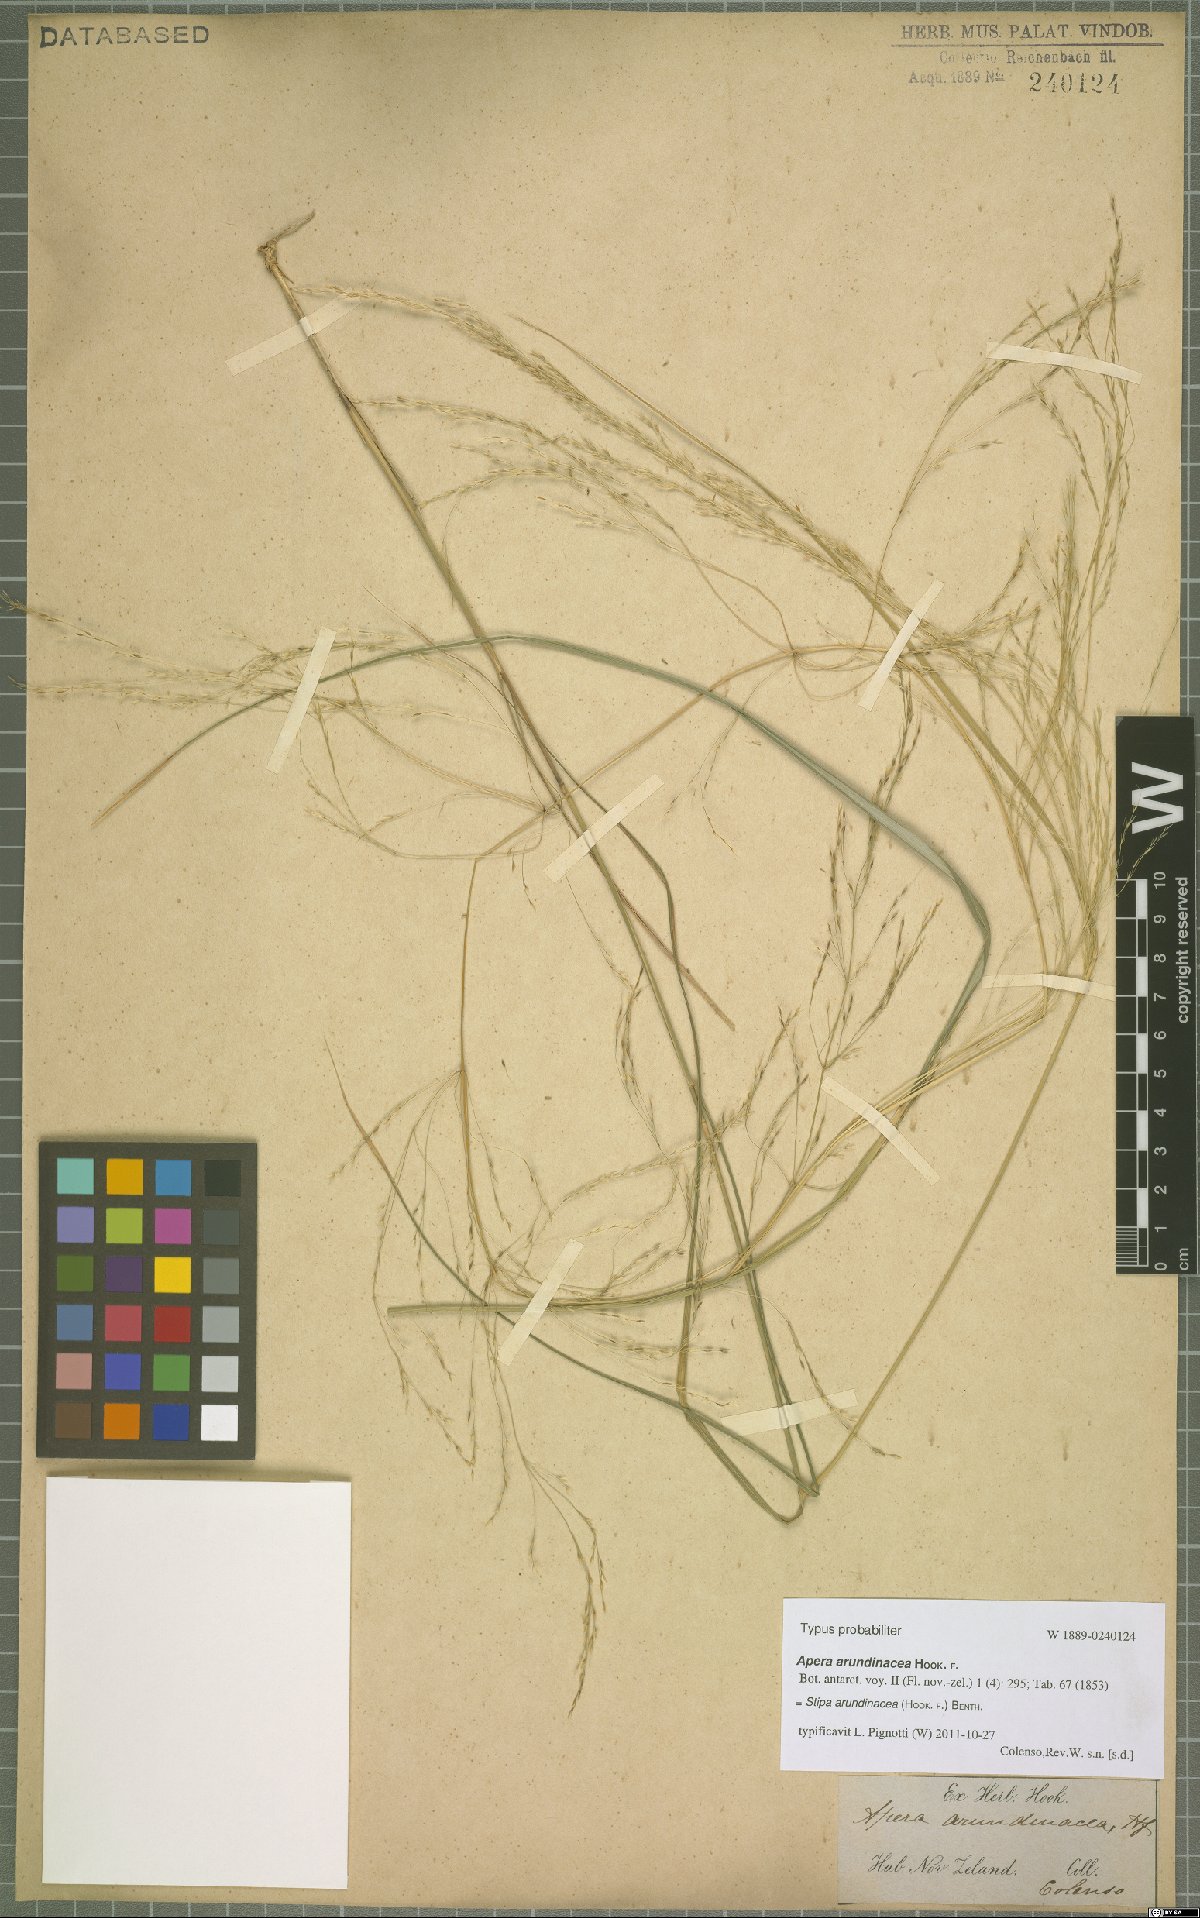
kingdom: Plantae
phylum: Tracheophyta
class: Liliopsida
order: Poales
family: Poaceae
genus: Anemanthele
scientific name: Anemanthele lessoniana
